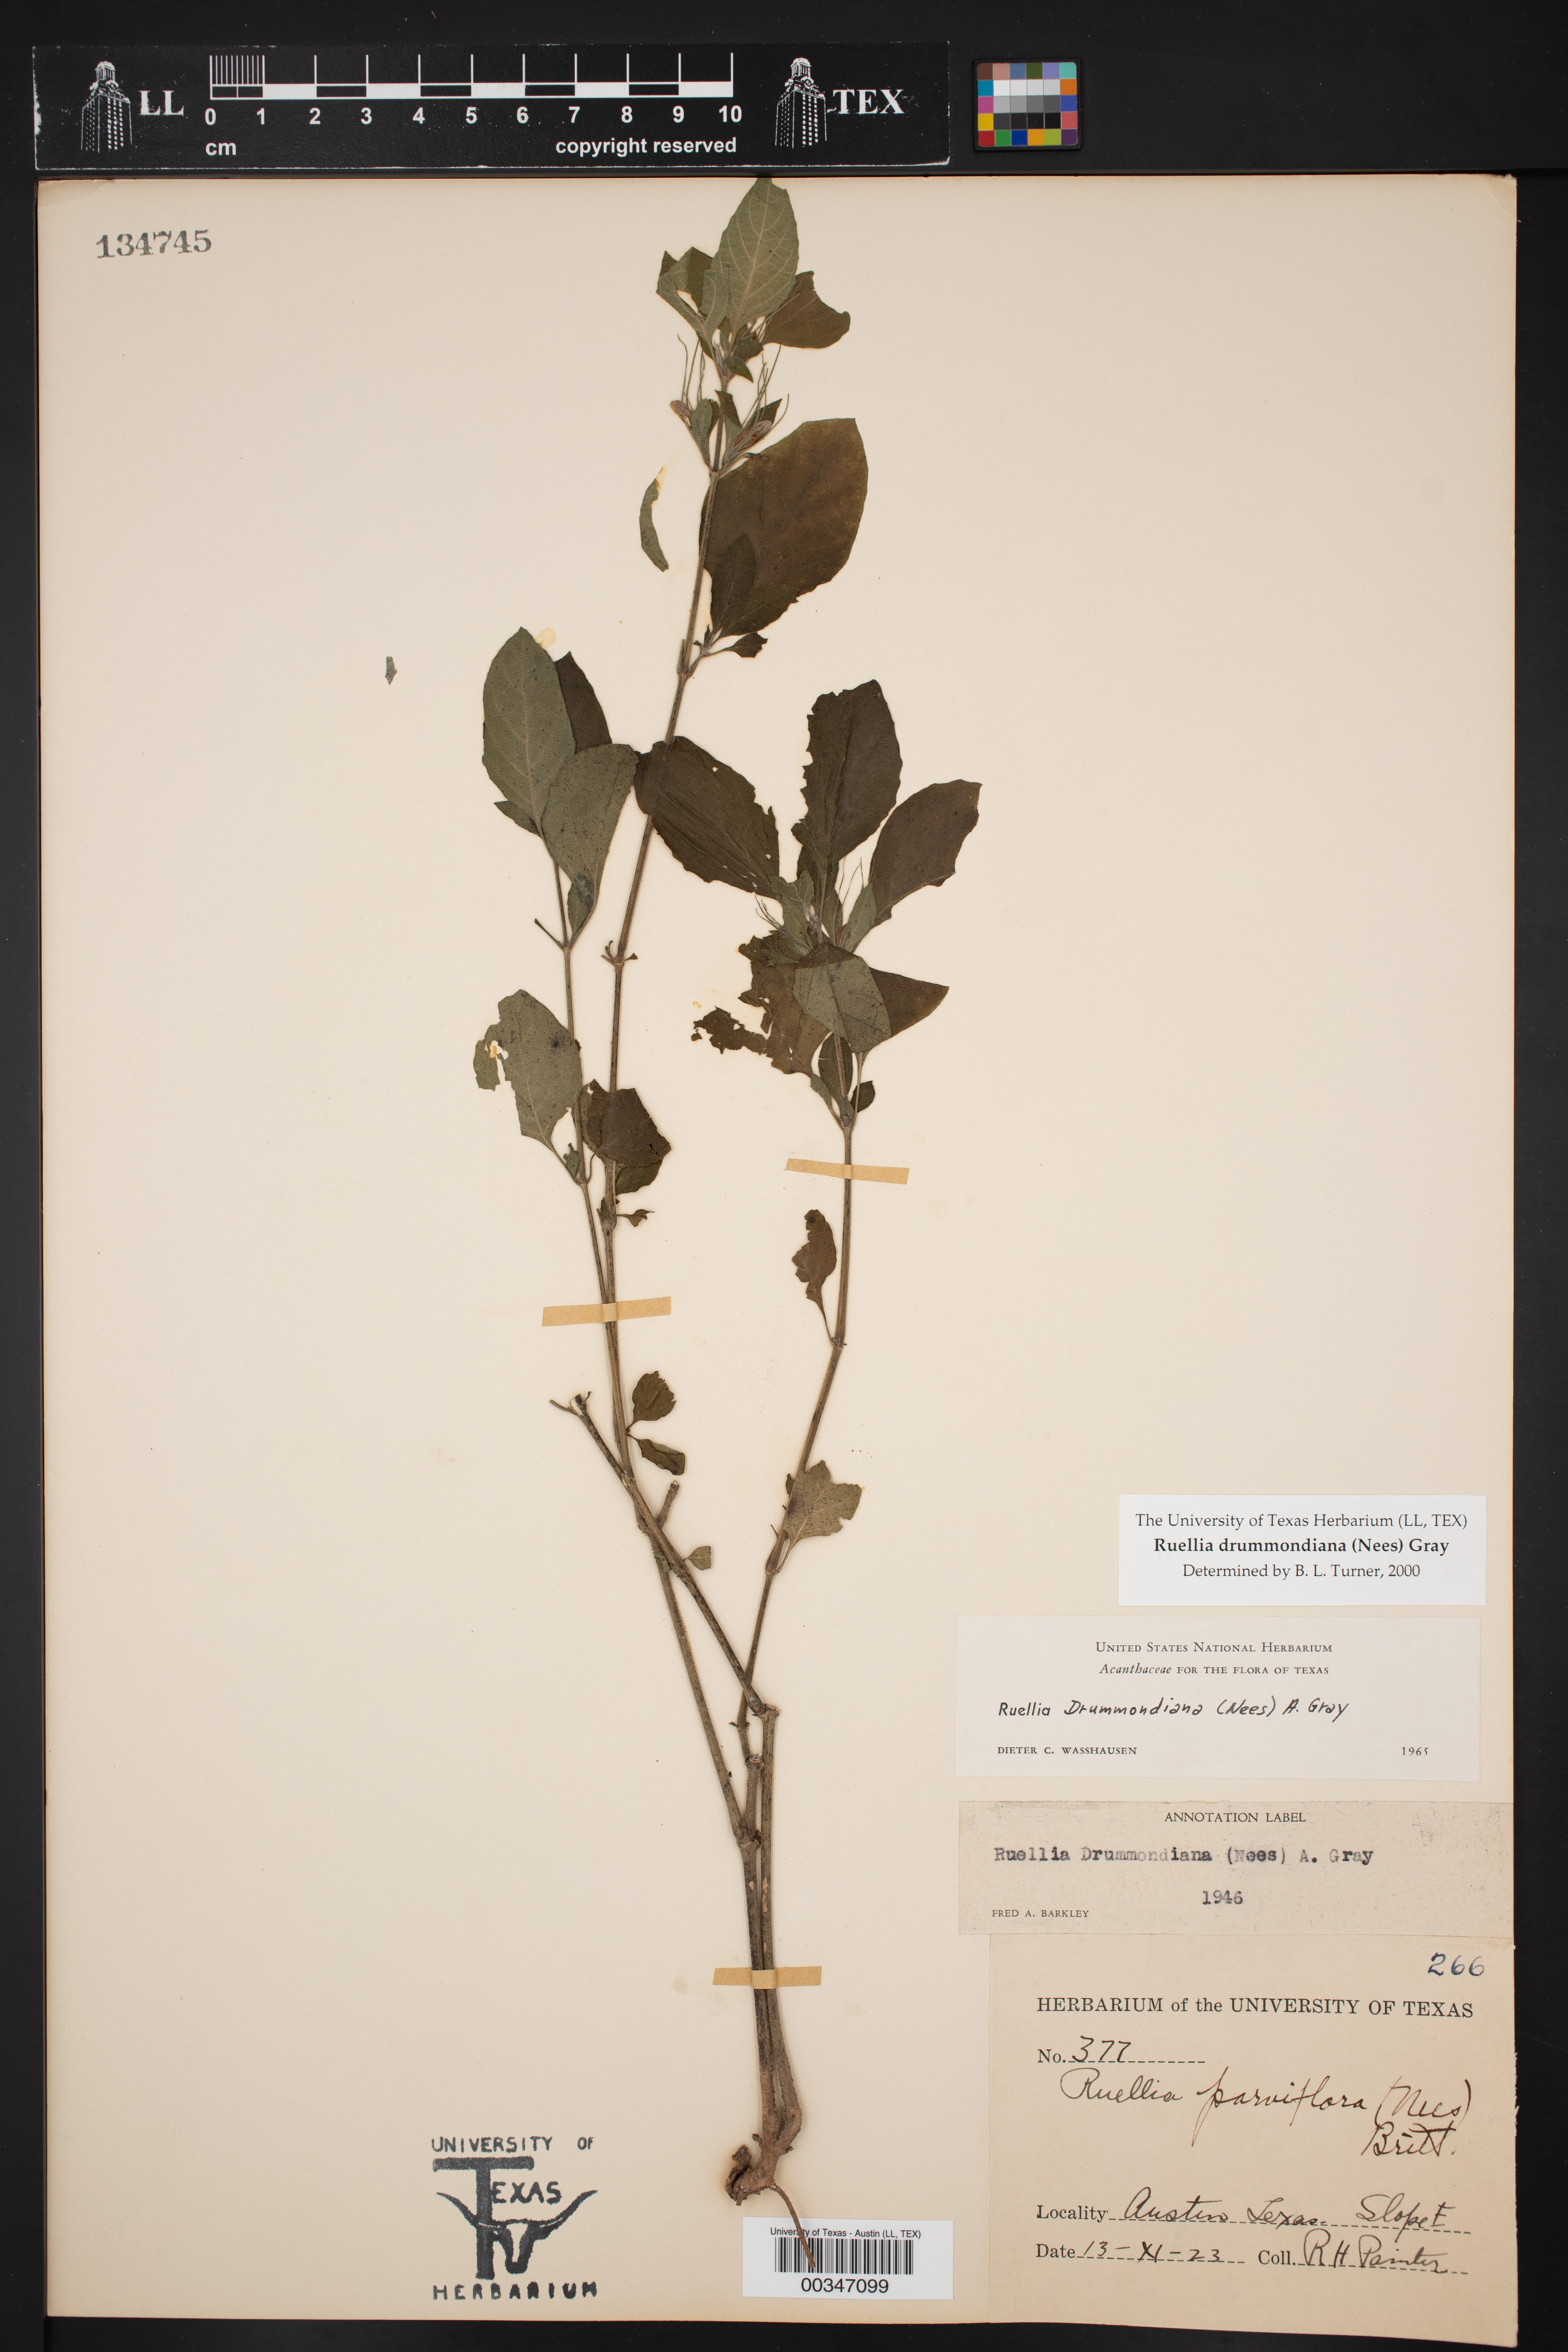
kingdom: Plantae
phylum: Tracheophyta
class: Magnoliopsida
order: Lamiales
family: Acanthaceae
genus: Ruellia
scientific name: Ruellia drummondiana
